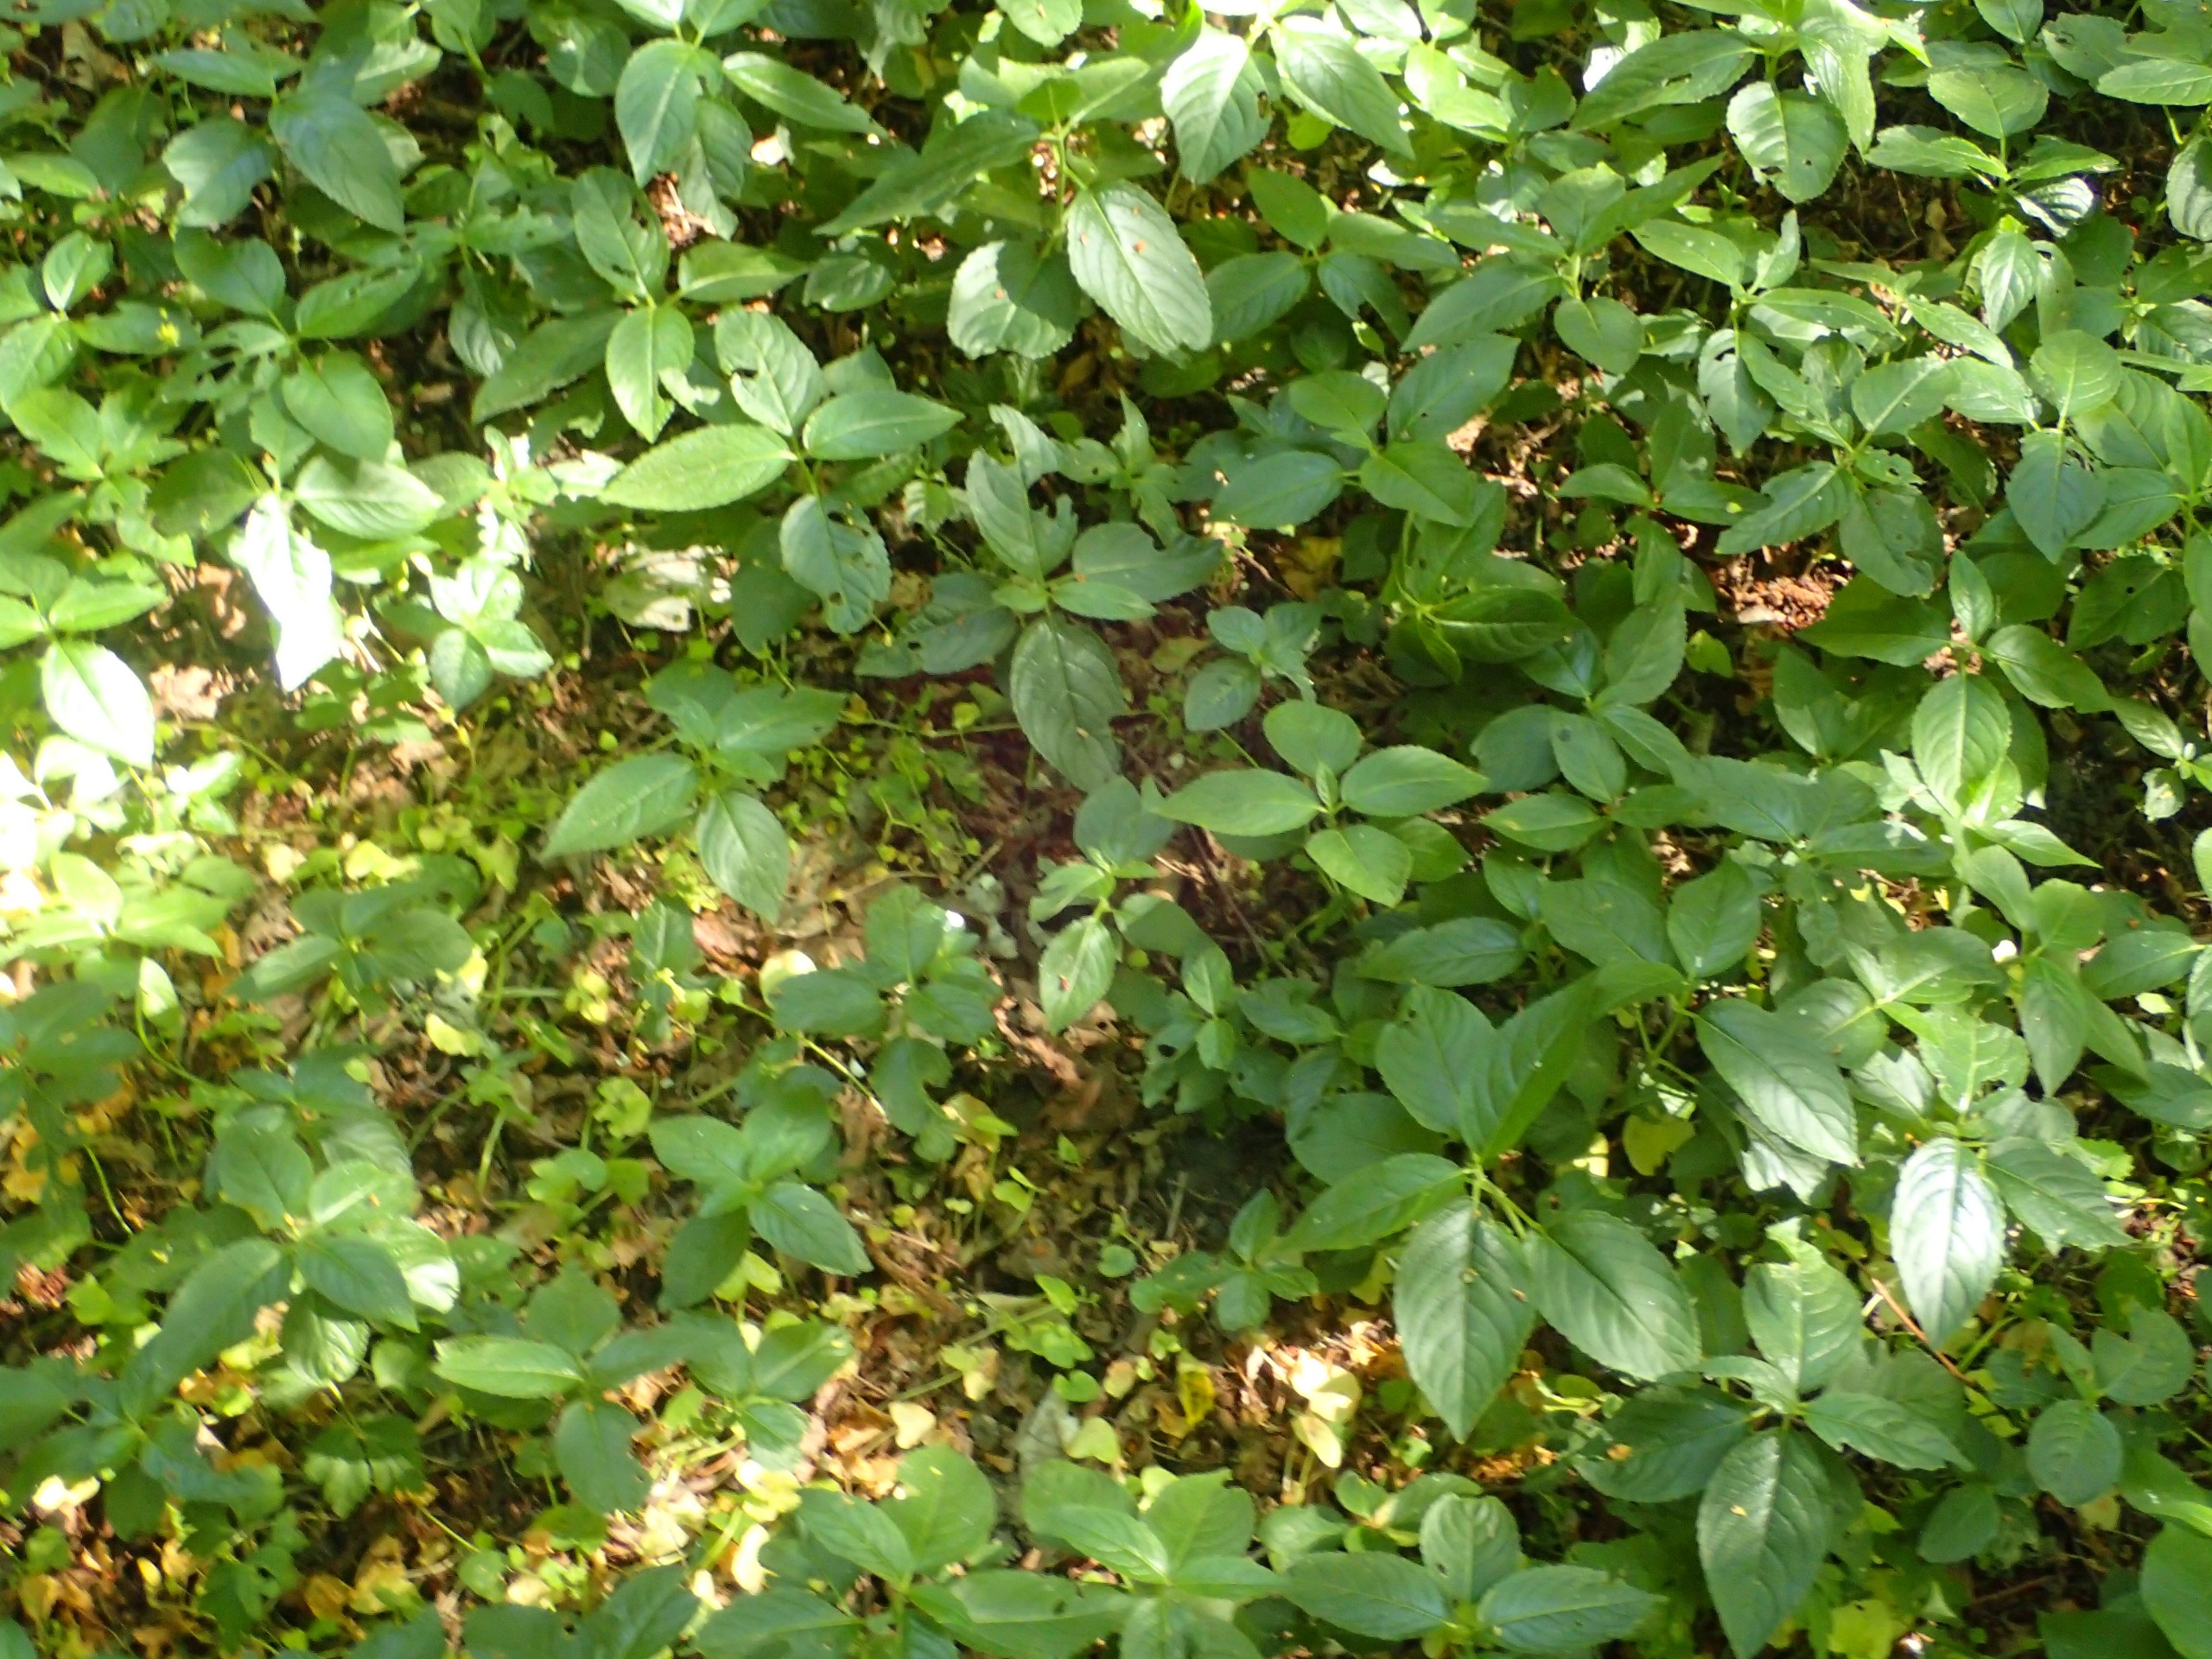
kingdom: Plantae
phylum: Tracheophyta
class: Magnoliopsida
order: Malpighiales
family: Euphorbiaceae
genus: Mercurialis
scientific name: Mercurialis perennis
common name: Almindelig bingelurt
